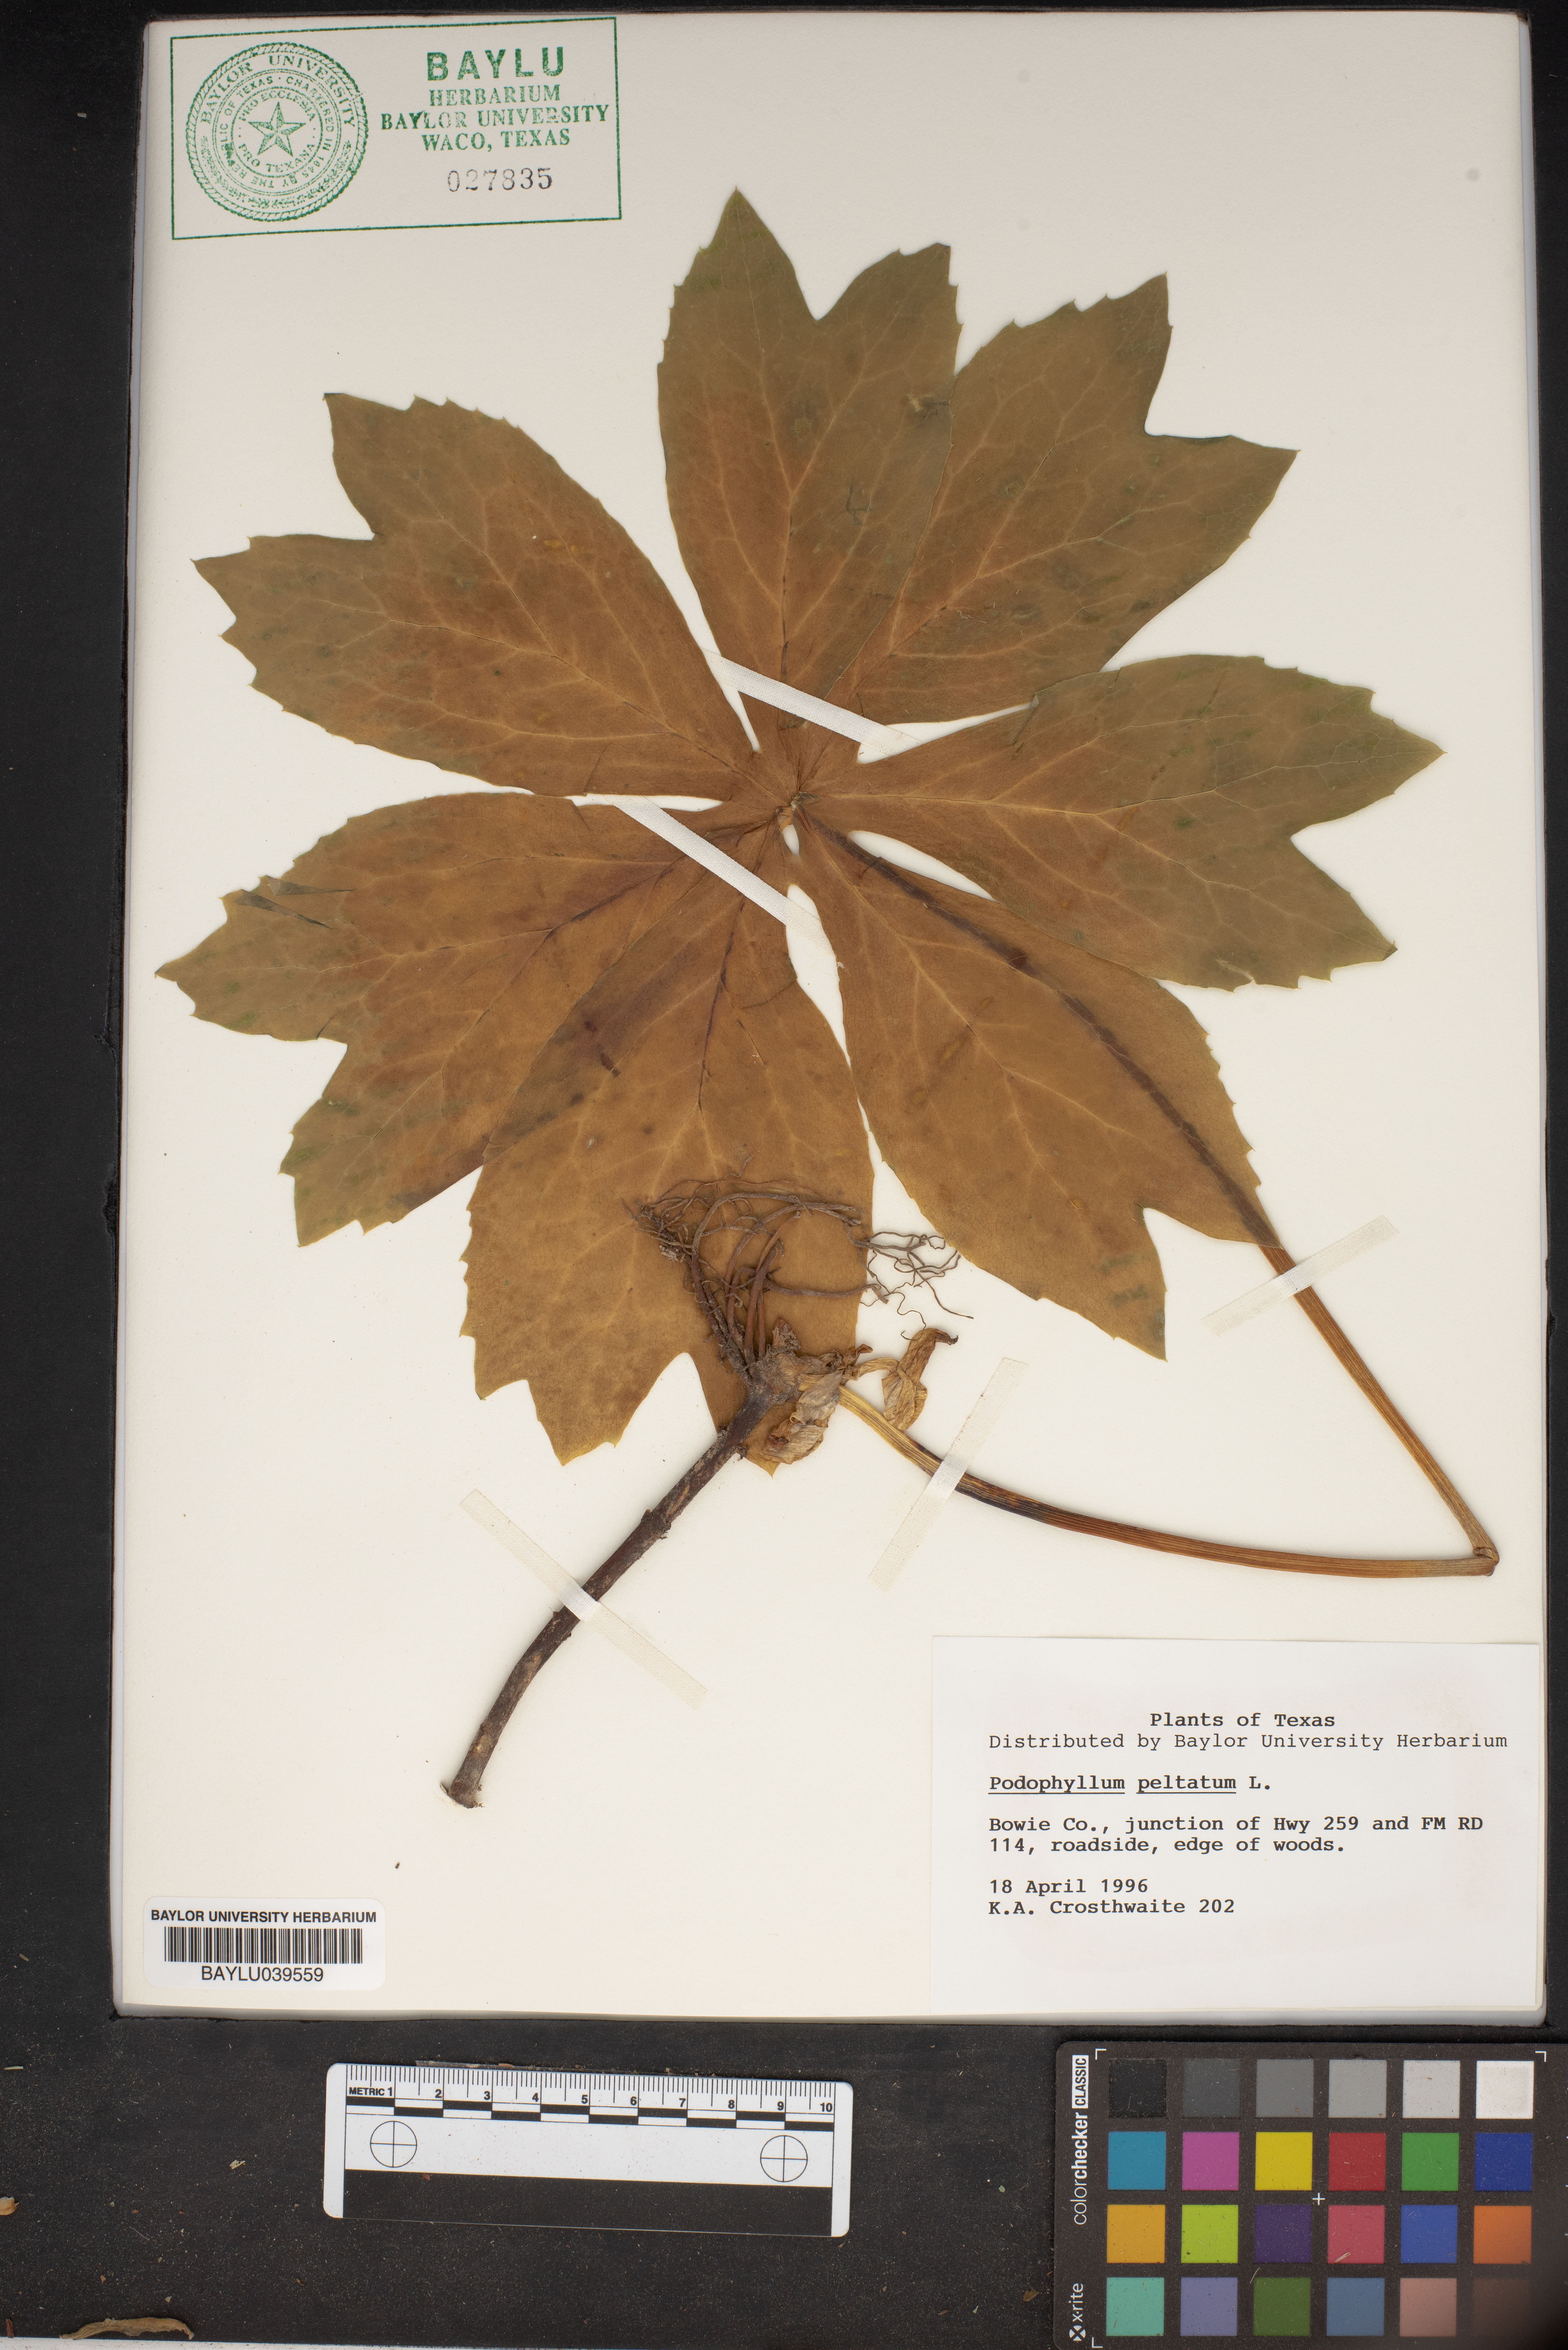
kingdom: Plantae
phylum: Tracheophyta
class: Magnoliopsida
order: Ranunculales
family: Berberidaceae
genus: Podophyllum
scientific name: Podophyllum peltatum
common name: Wild mandrake
